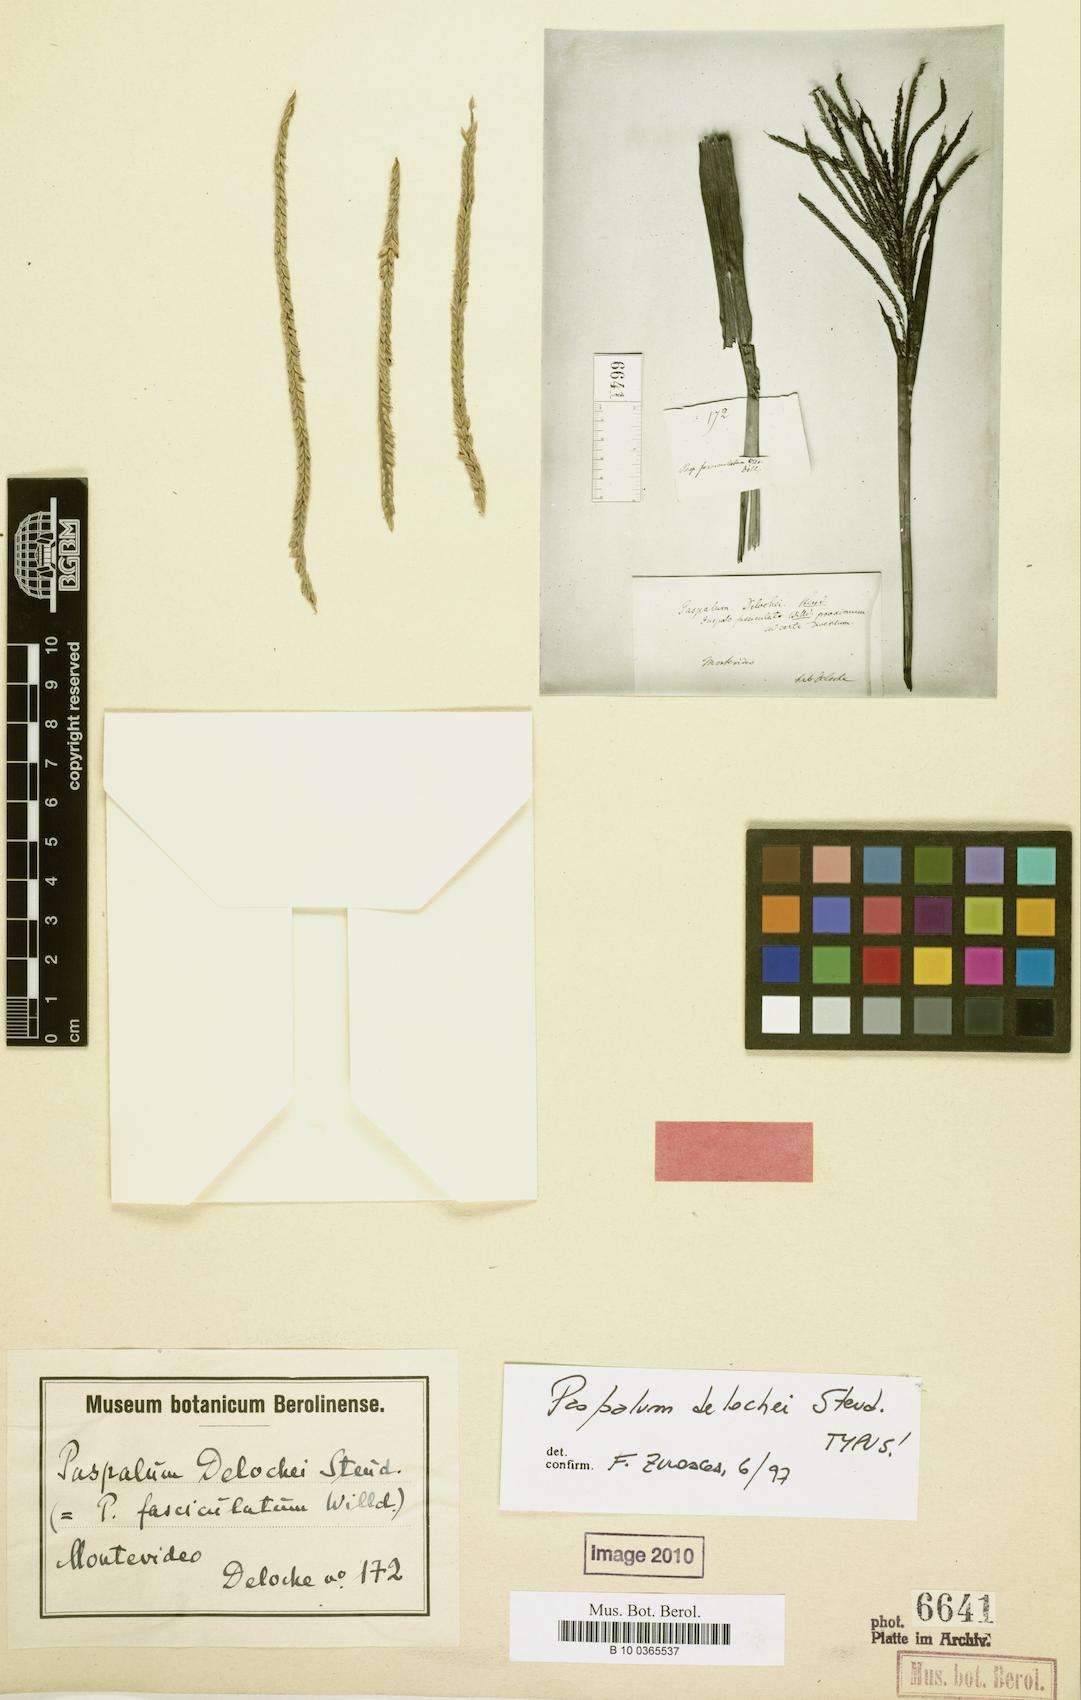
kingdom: Plantae
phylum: Tracheophyta
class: Liliopsida
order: Poales
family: Poaceae
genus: Paspalum
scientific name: Paspalum fasciculatum
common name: Bamboo grass
